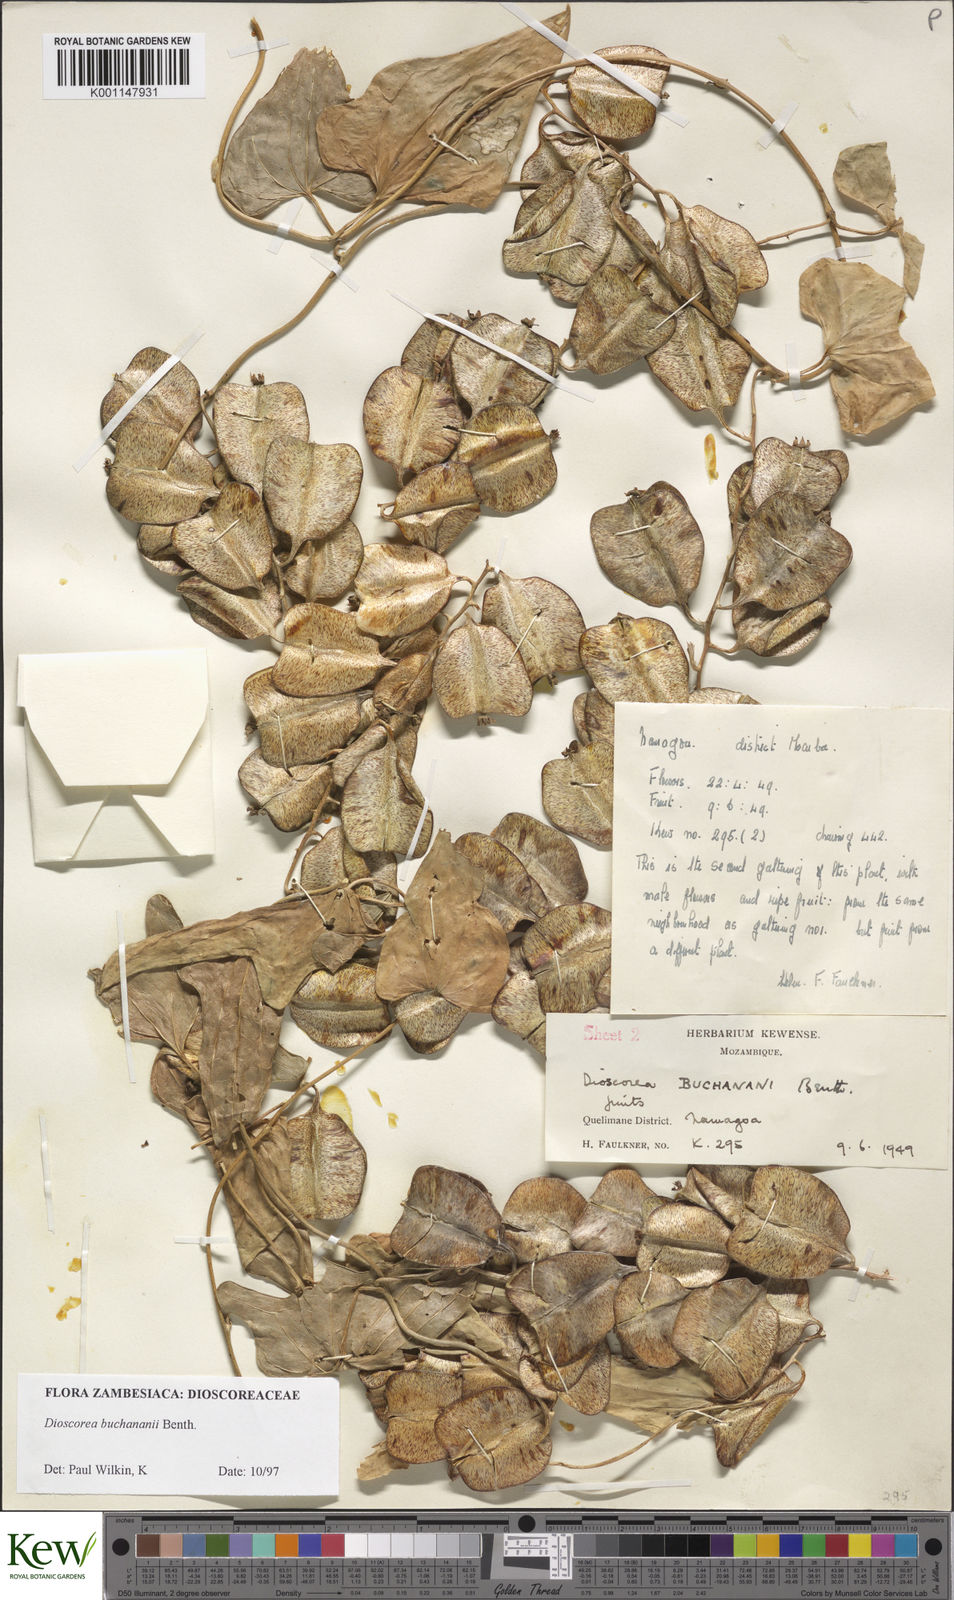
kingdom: Plantae
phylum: Tracheophyta
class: Liliopsida
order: Dioscoreales
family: Dioscoreaceae
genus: Dioscorea
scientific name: Dioscorea buchananii
